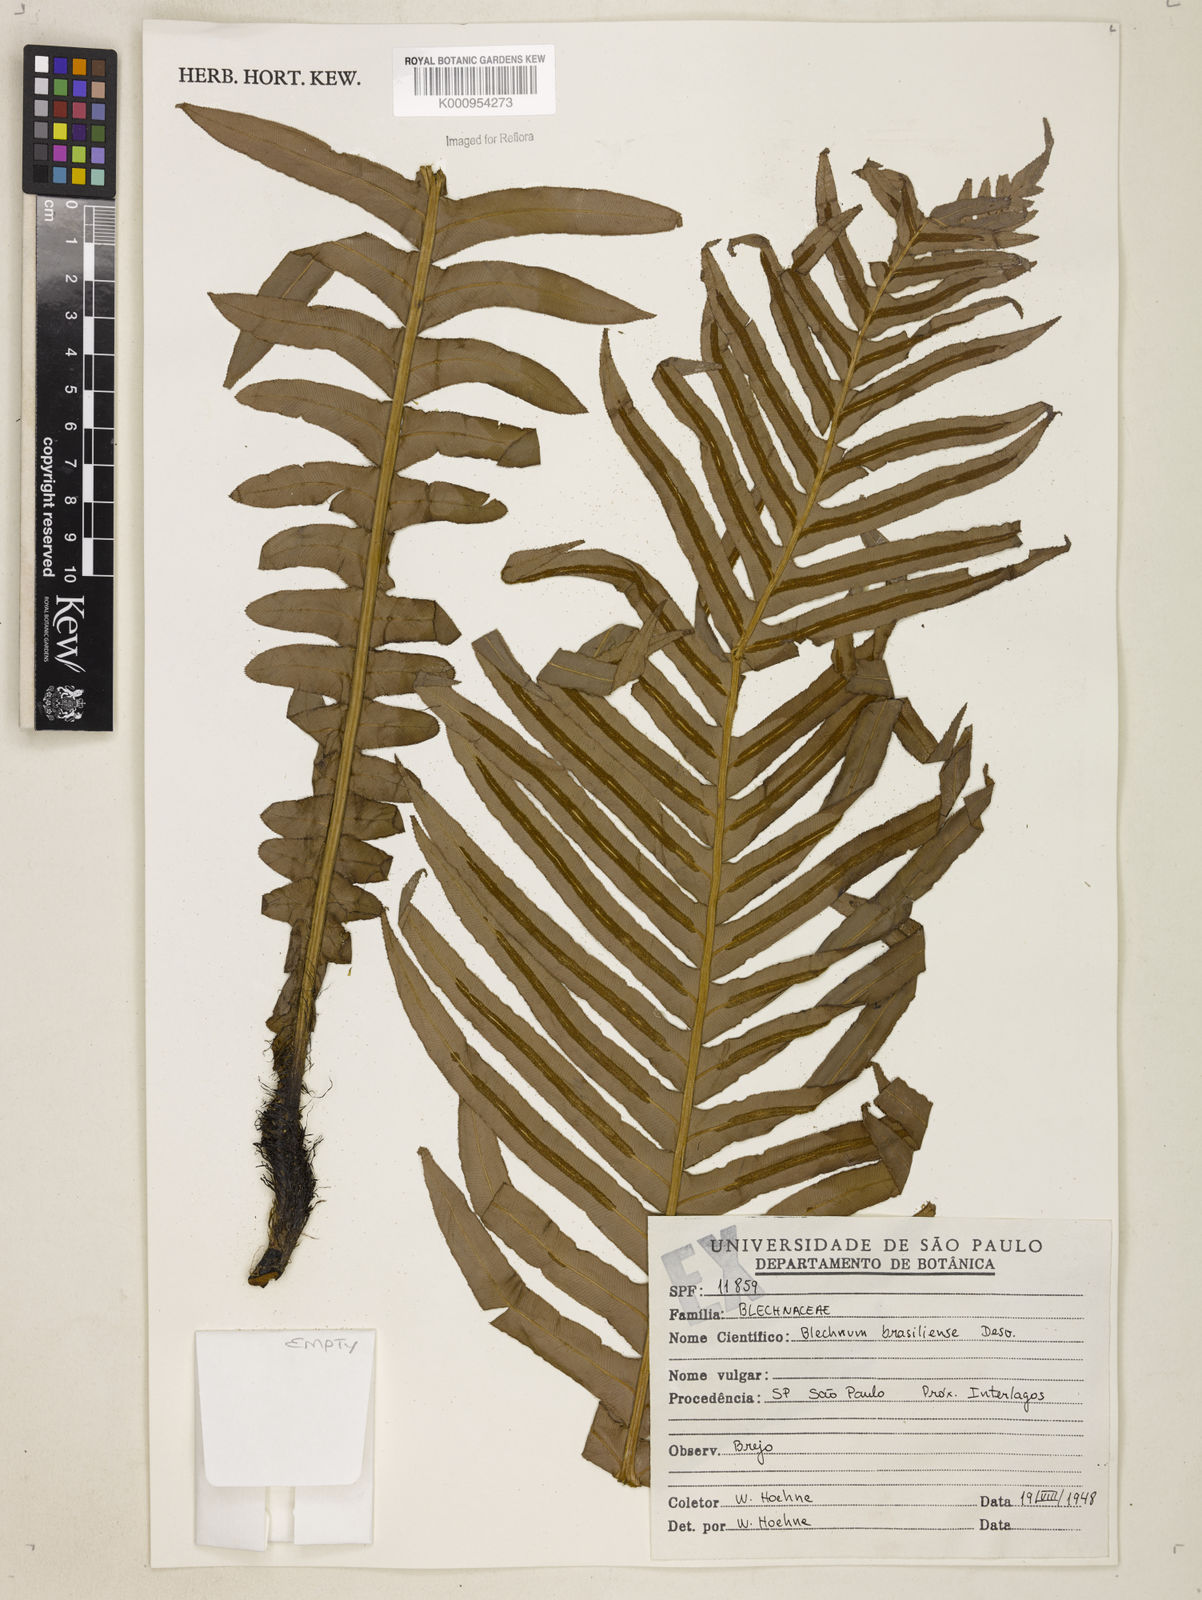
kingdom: Plantae
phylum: Tracheophyta
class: Polypodiopsida
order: Polypodiales
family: Blechnaceae
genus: Neoblechnum
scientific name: Neoblechnum brasiliense
